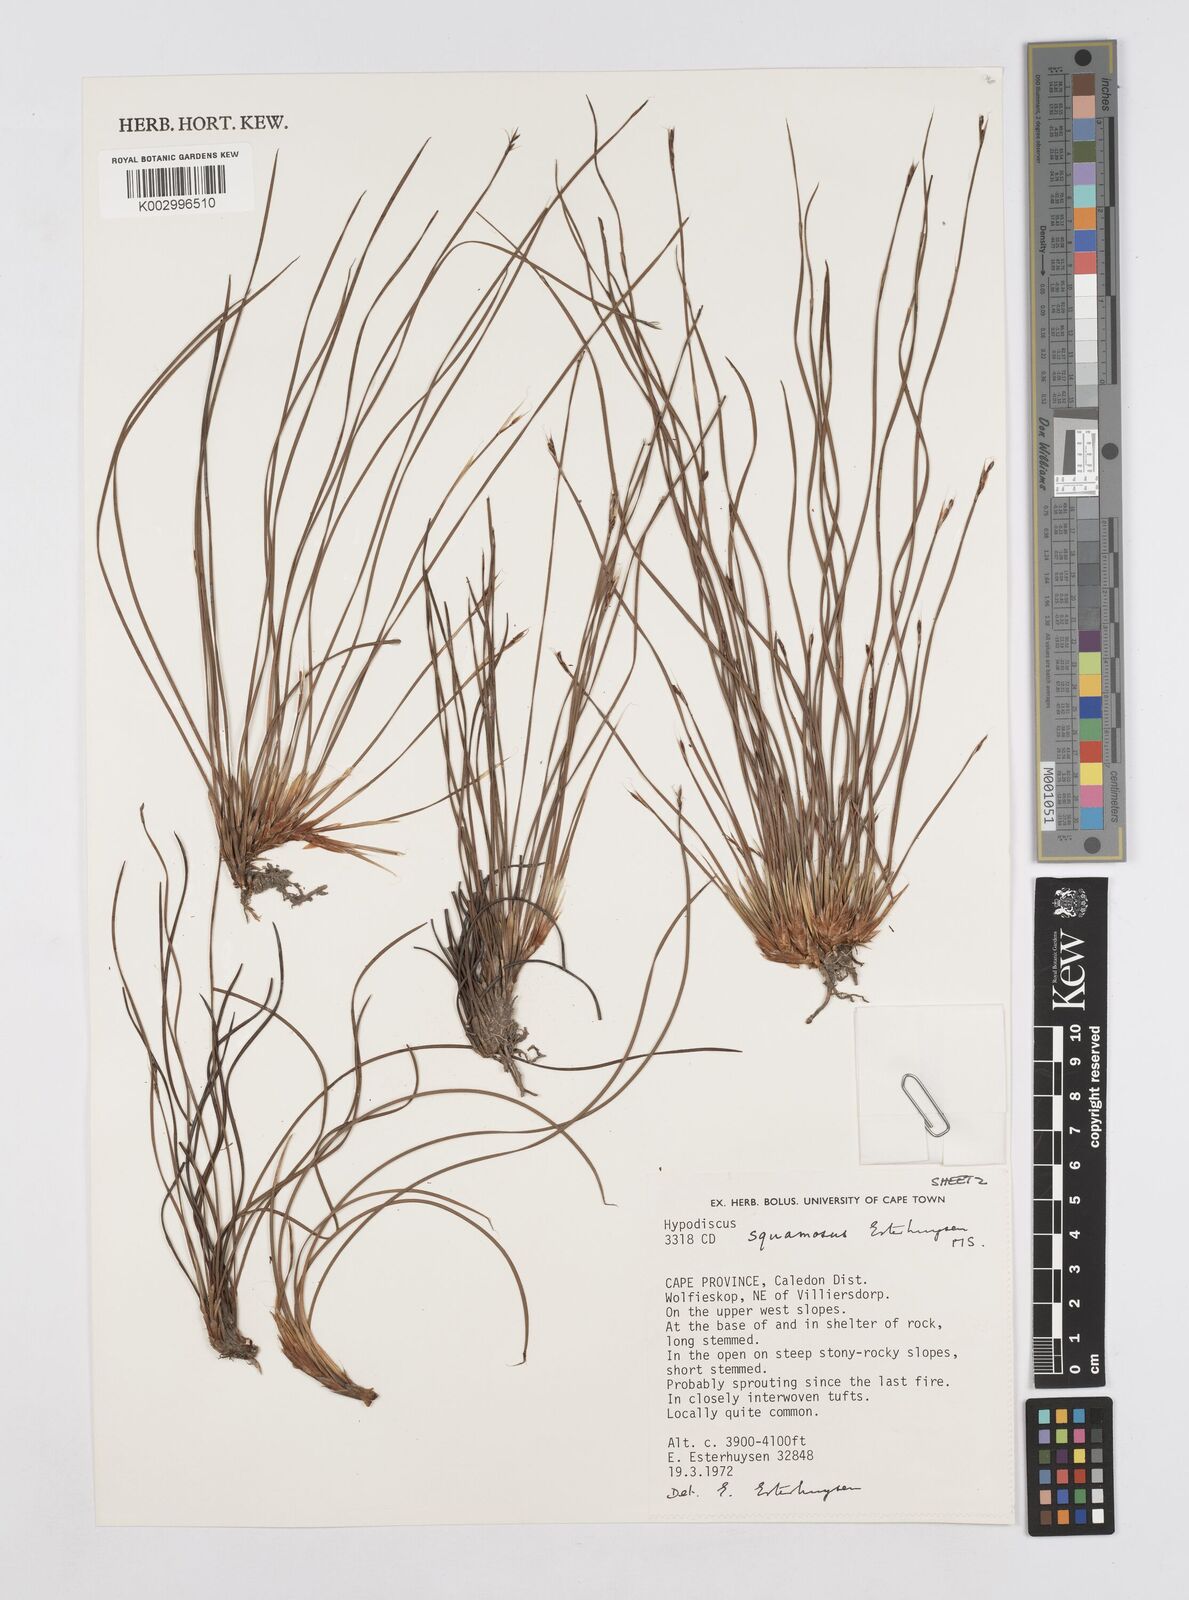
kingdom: Plantae
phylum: Tracheophyta
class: Liliopsida
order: Poales
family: Restionaceae
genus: Hypodiscus
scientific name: Hypodiscus squamosus
